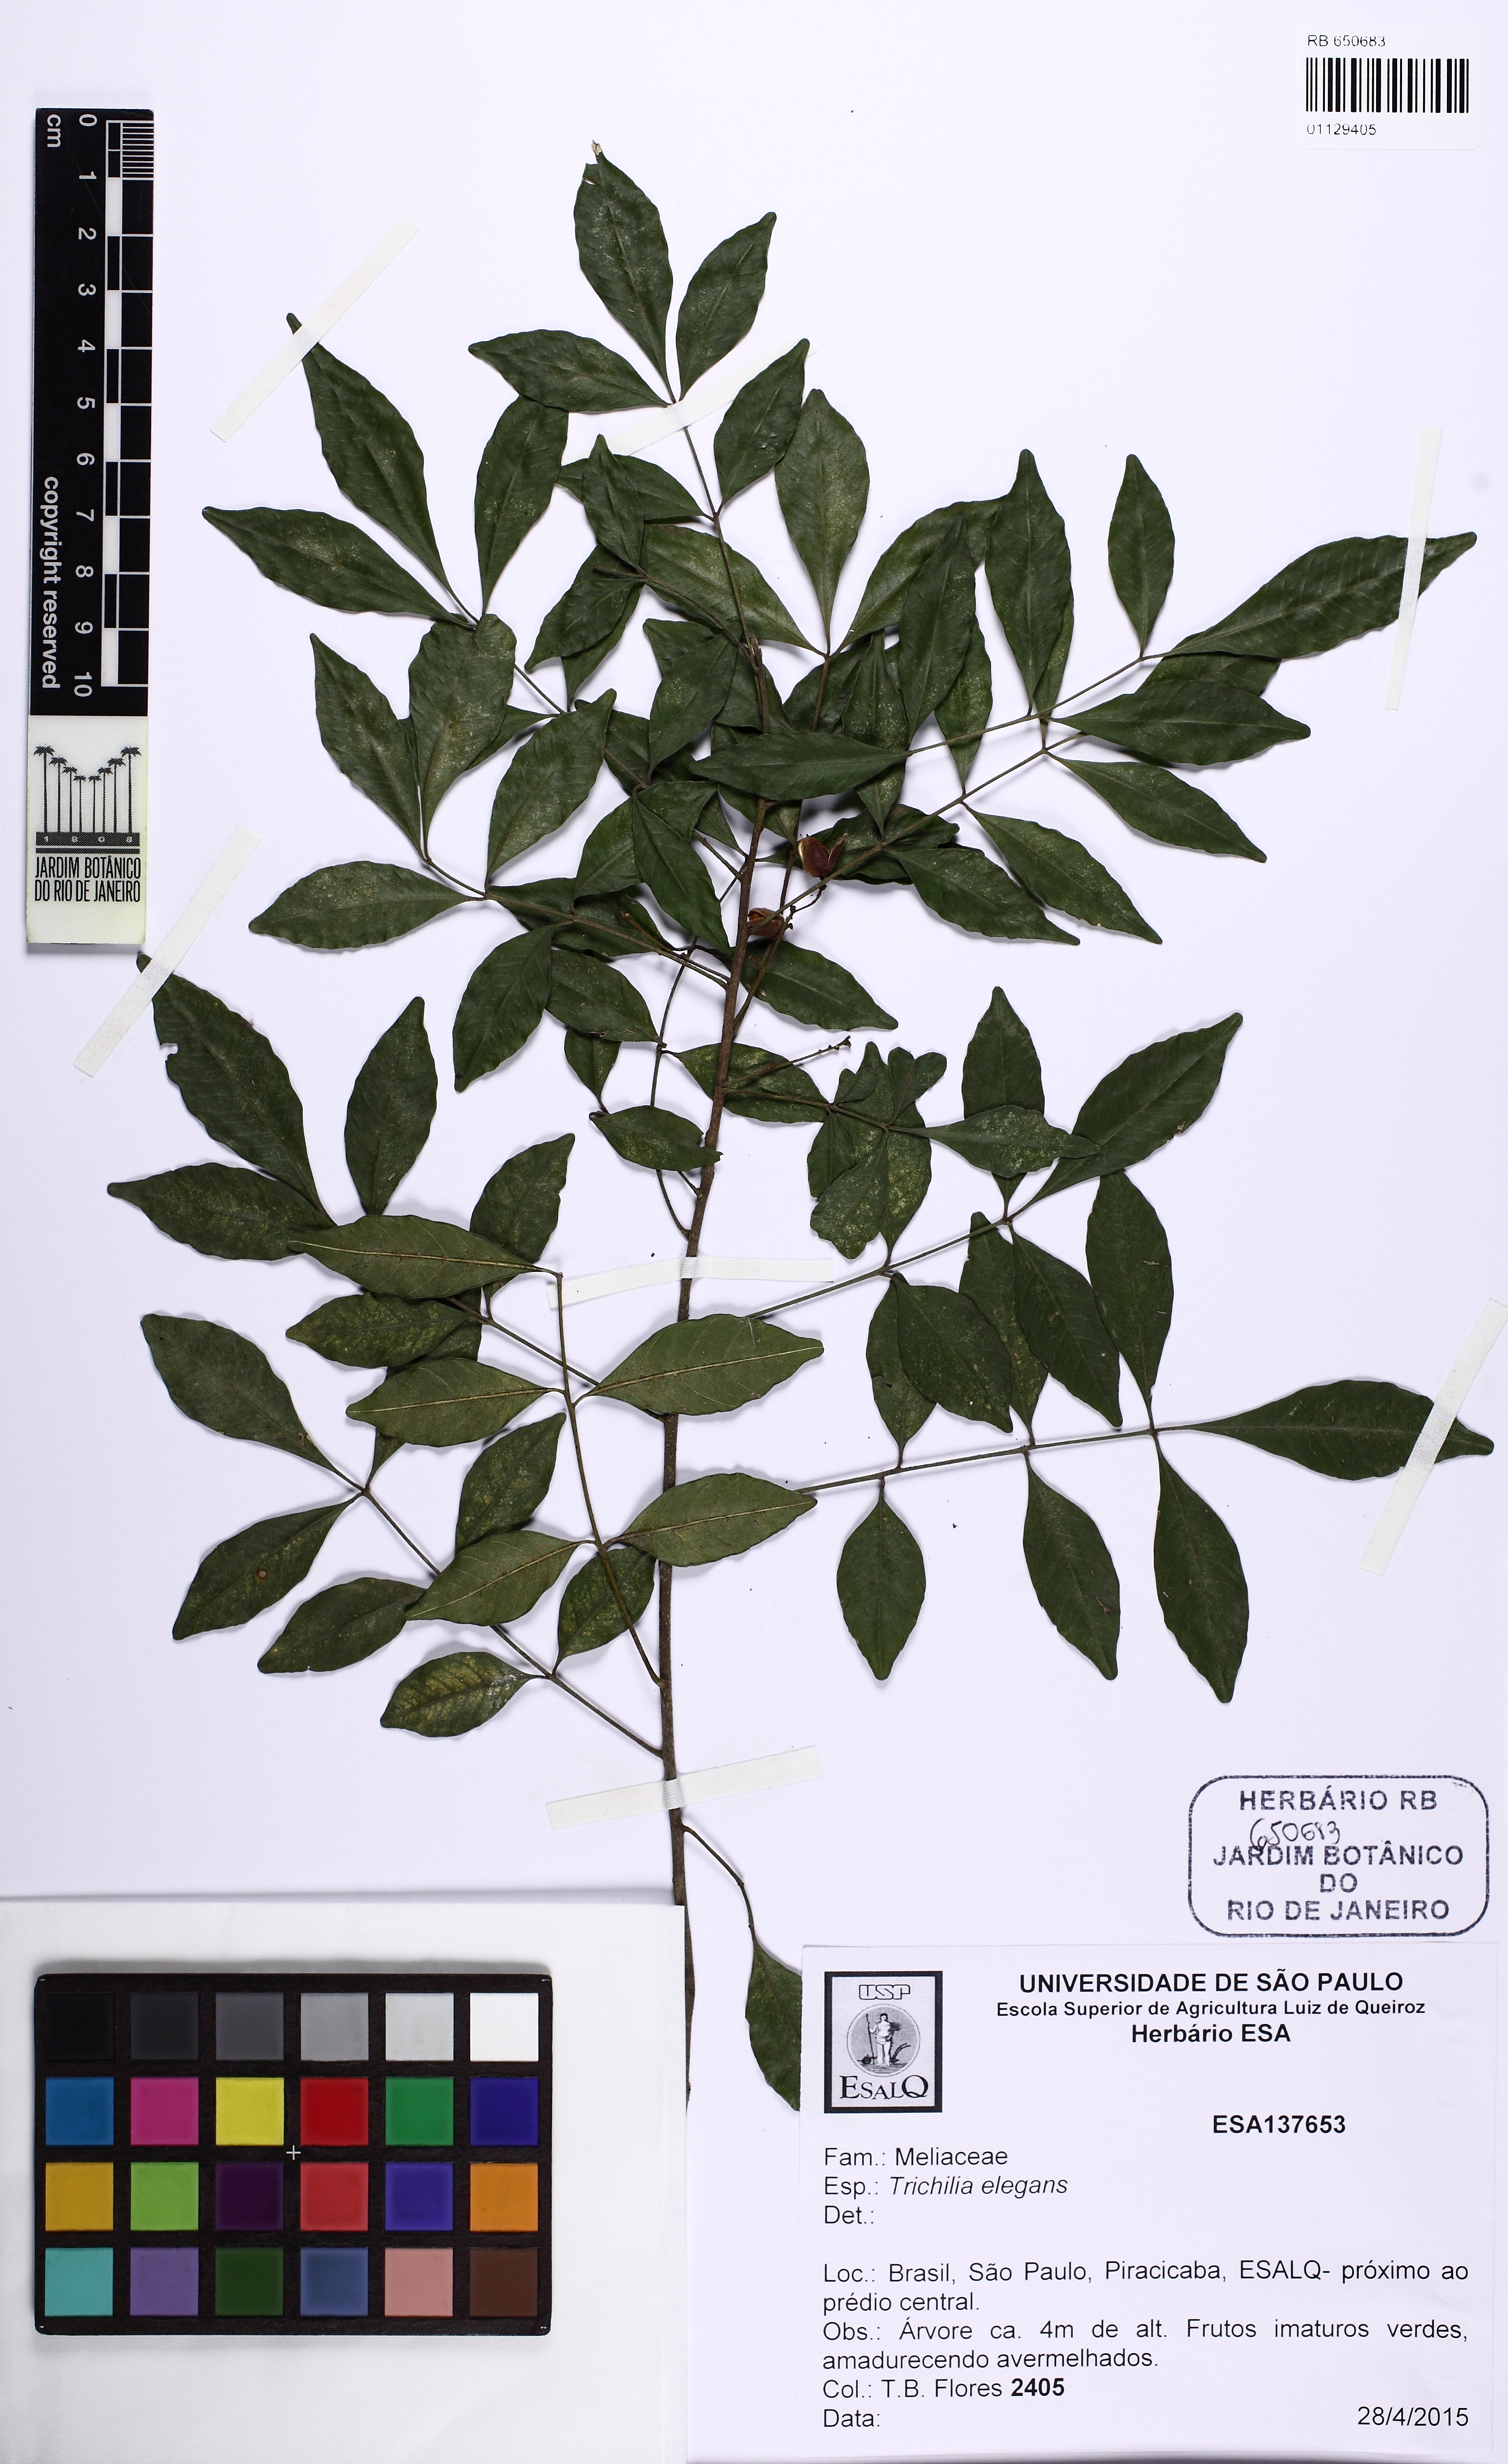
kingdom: Plantae
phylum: Tracheophyta
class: Magnoliopsida
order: Sapindales
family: Meliaceae
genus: Trichilia
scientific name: Trichilia elegans
